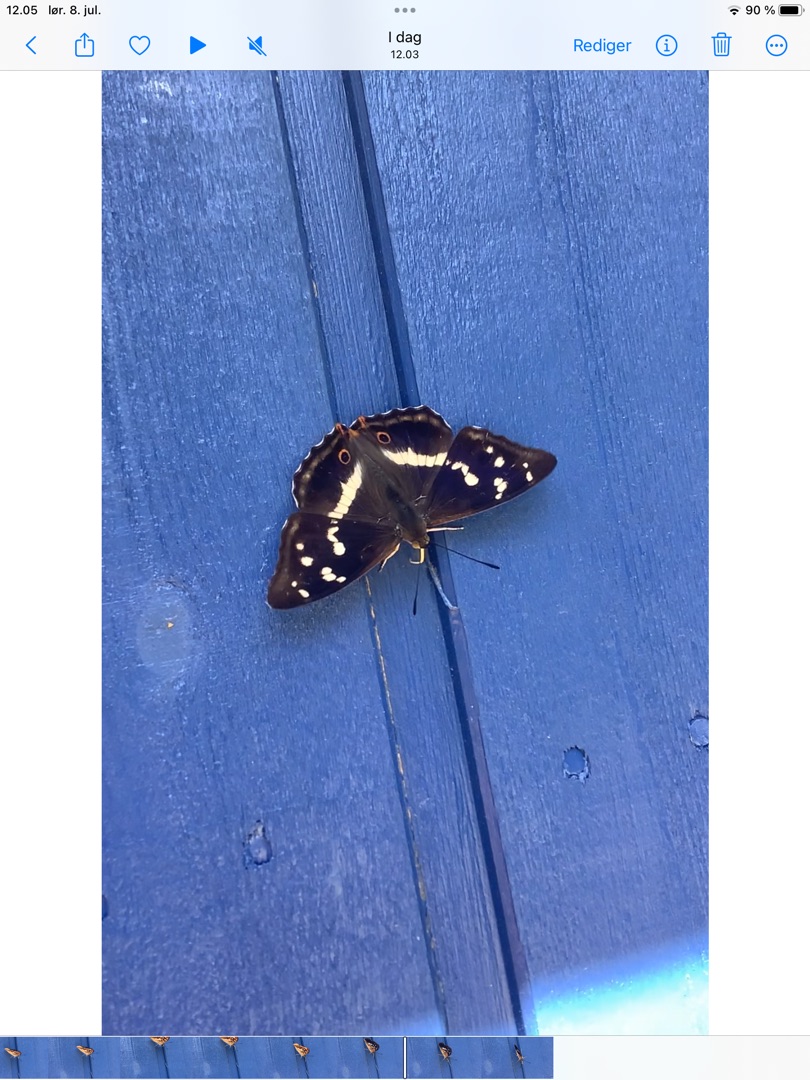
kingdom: Animalia
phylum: Arthropoda
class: Insecta
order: Lepidoptera
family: Nymphalidae
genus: Apatura
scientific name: Apatura iris
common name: Iris
